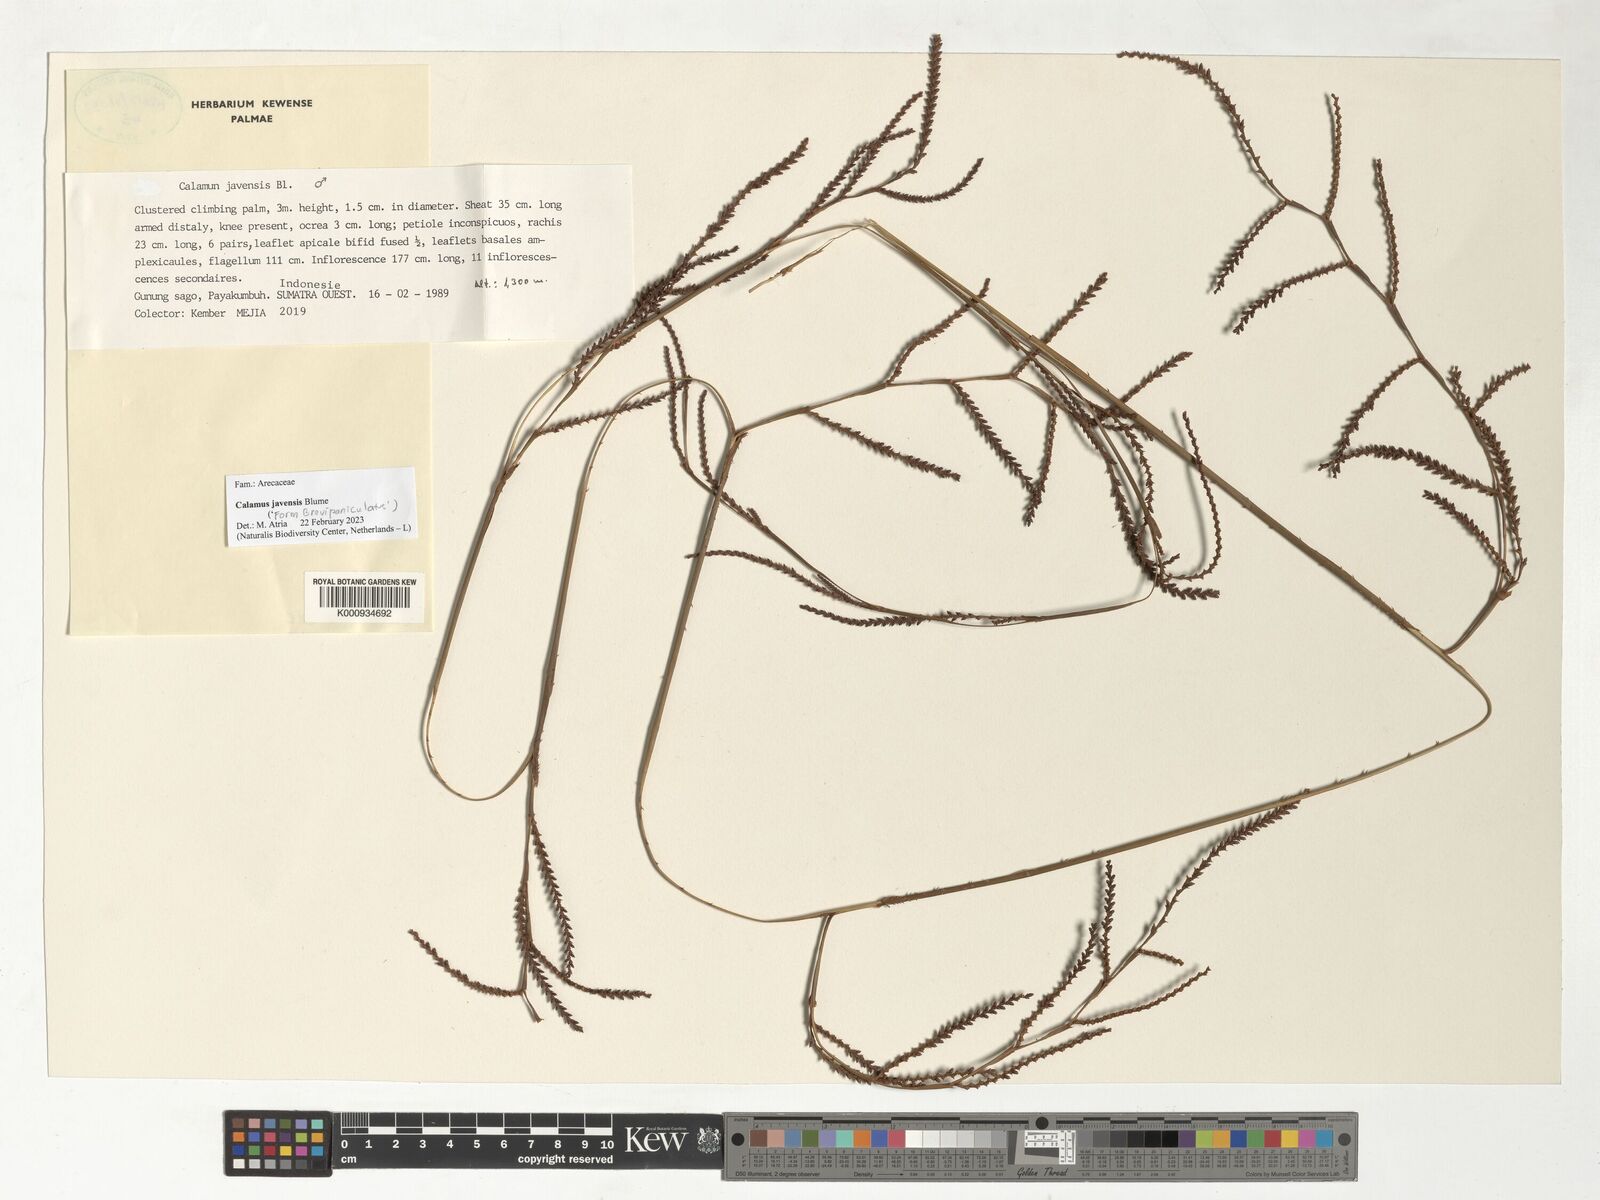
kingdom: Plantae
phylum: Tracheophyta
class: Liliopsida
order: Arecales
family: Arecaceae
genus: Calamus
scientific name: Calamus javensis
